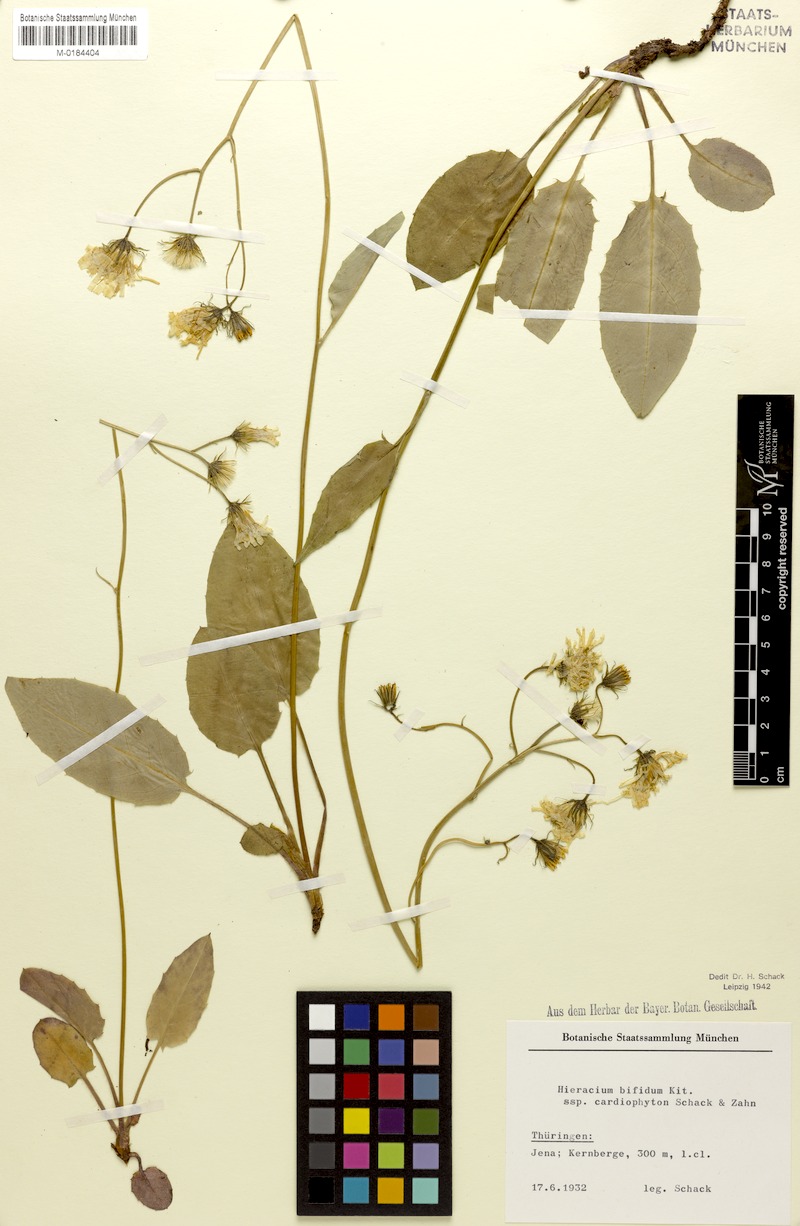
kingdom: Plantae
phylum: Tracheophyta
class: Magnoliopsida
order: Asterales
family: Asteraceae
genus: Hieracium
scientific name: Hieracium bifidum
